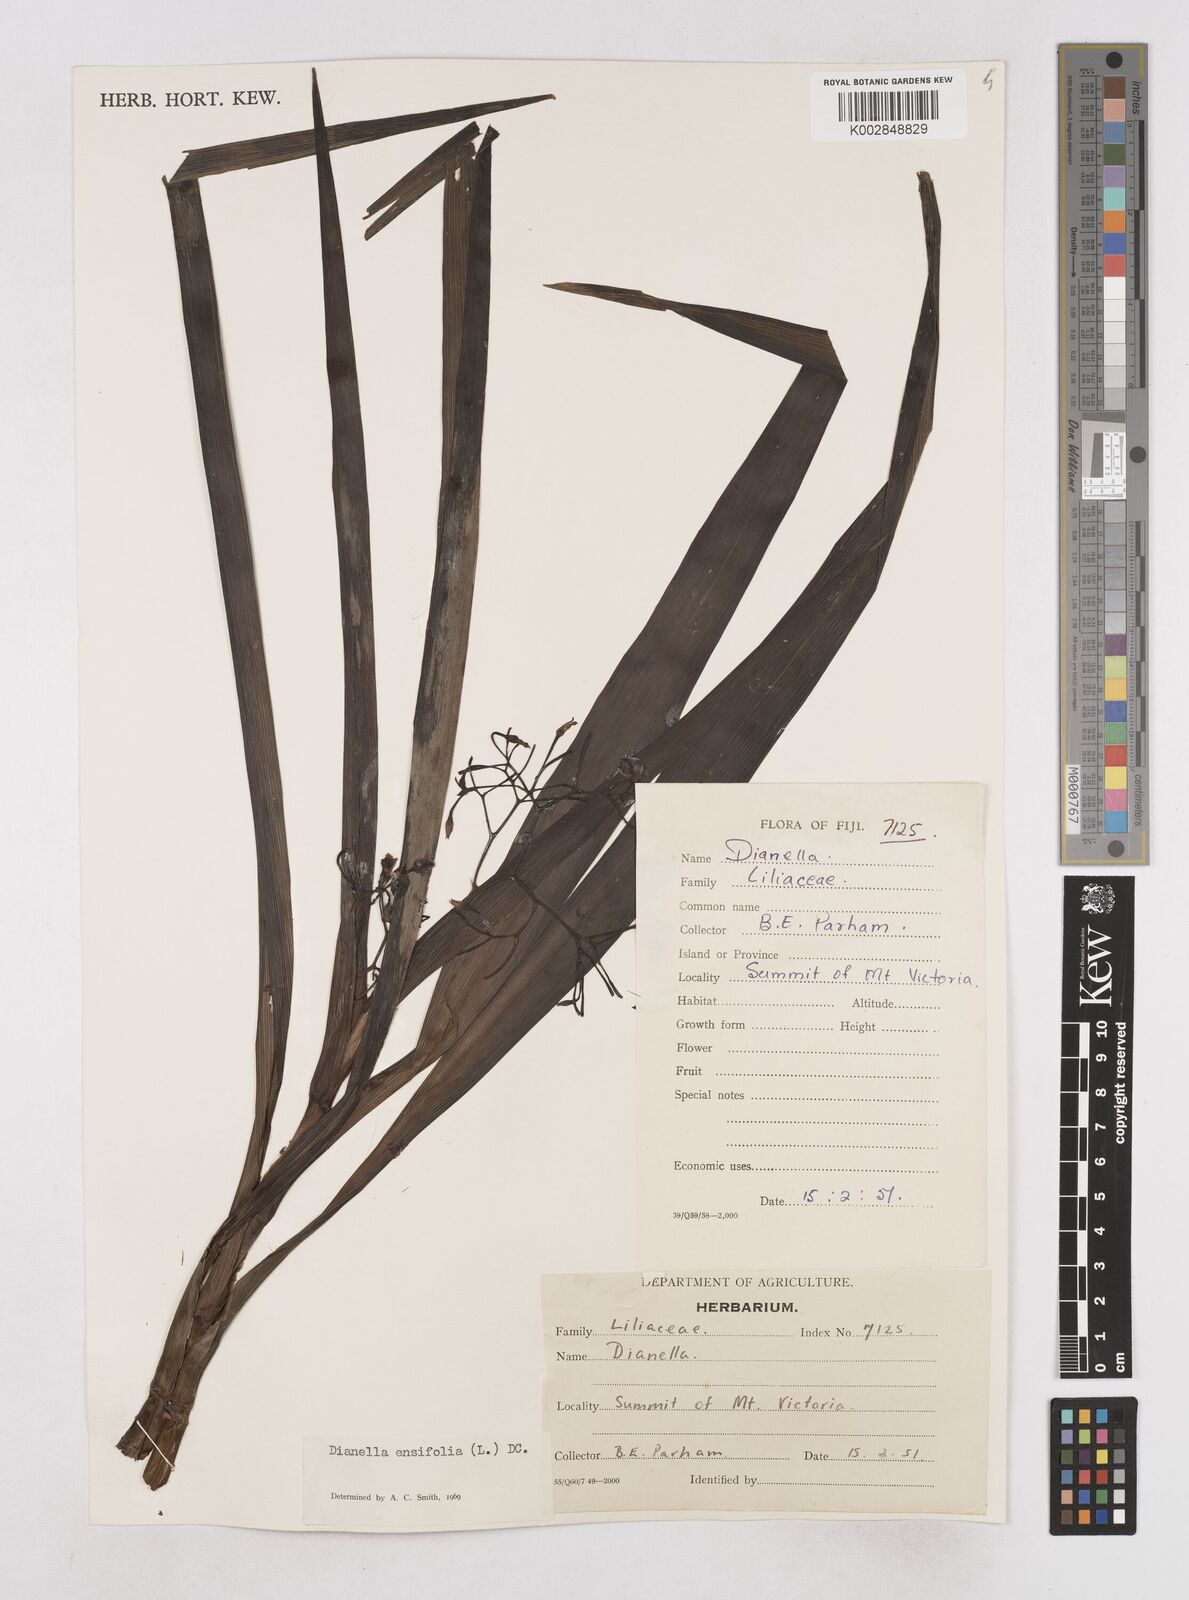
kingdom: Plantae
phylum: Tracheophyta
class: Liliopsida
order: Asparagales
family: Asphodelaceae
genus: Dianella
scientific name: Dianella ensifolia
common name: New zealand lilyplant
